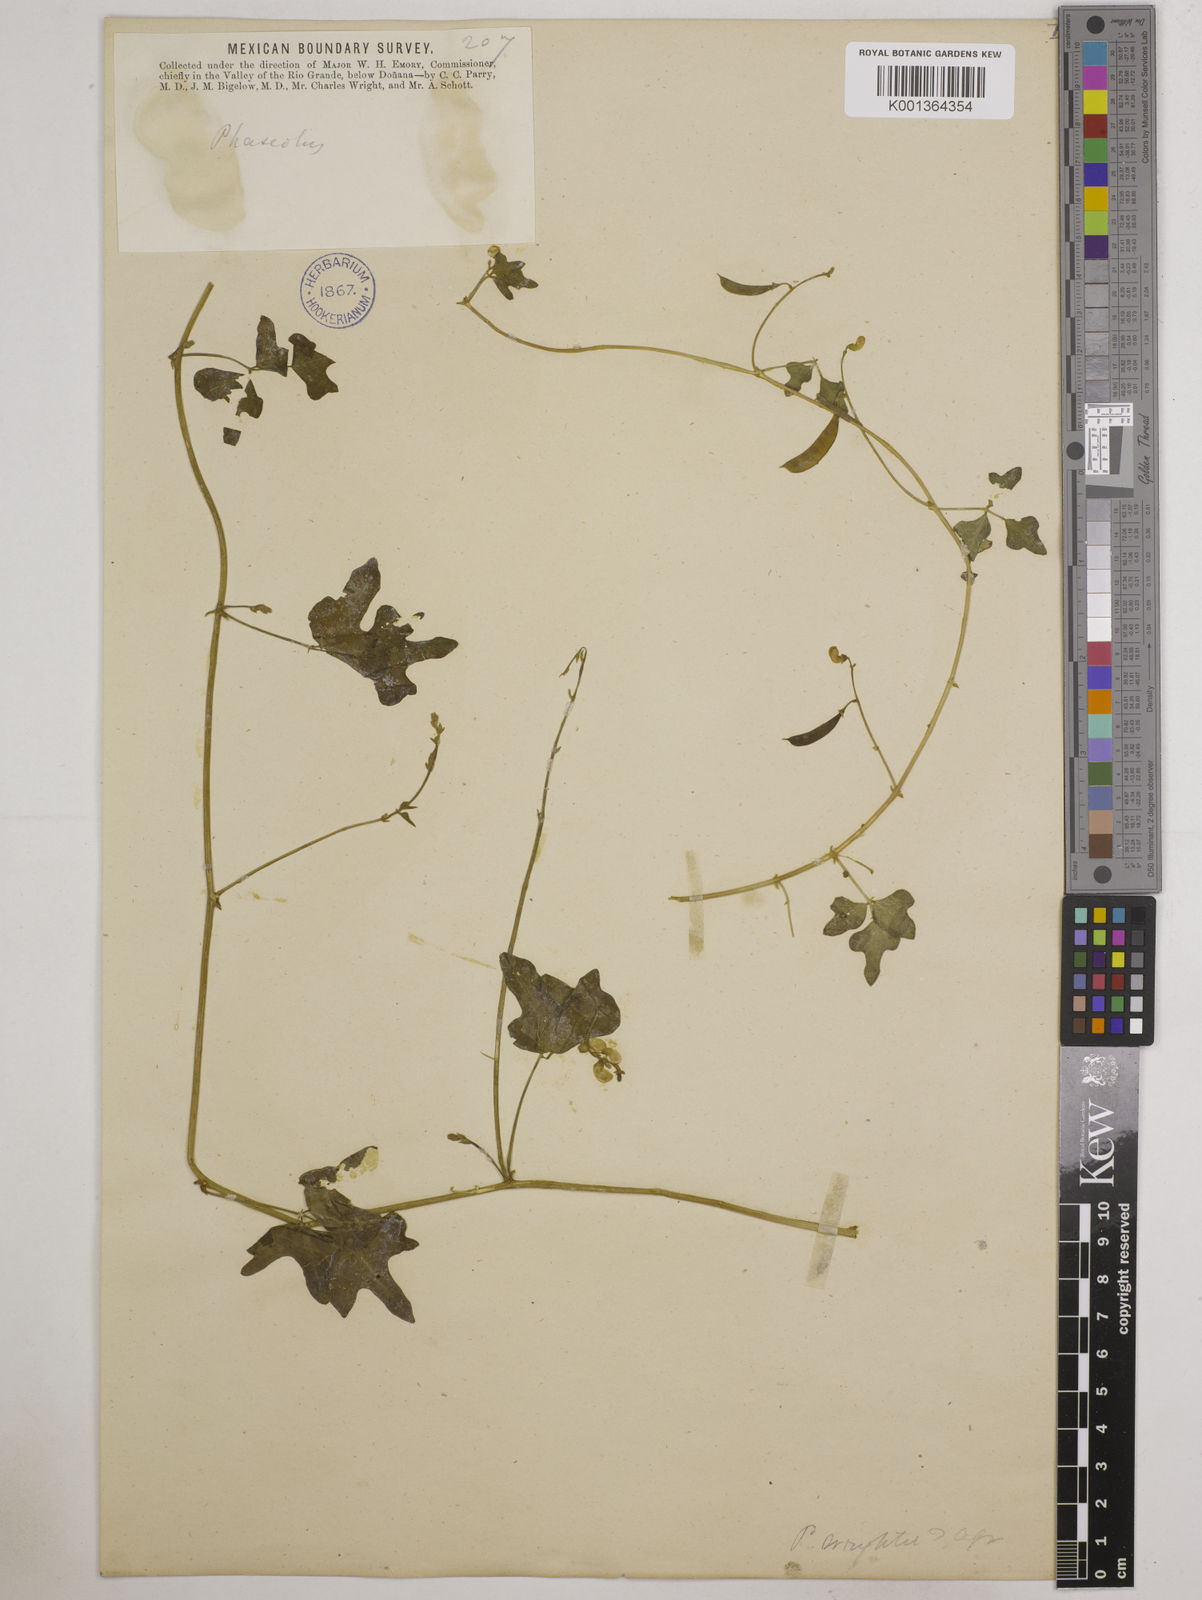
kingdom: Plantae
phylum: Tracheophyta
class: Magnoliopsida
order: Fabales
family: Fabaceae
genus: Vigna
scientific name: Vigna hainiana
